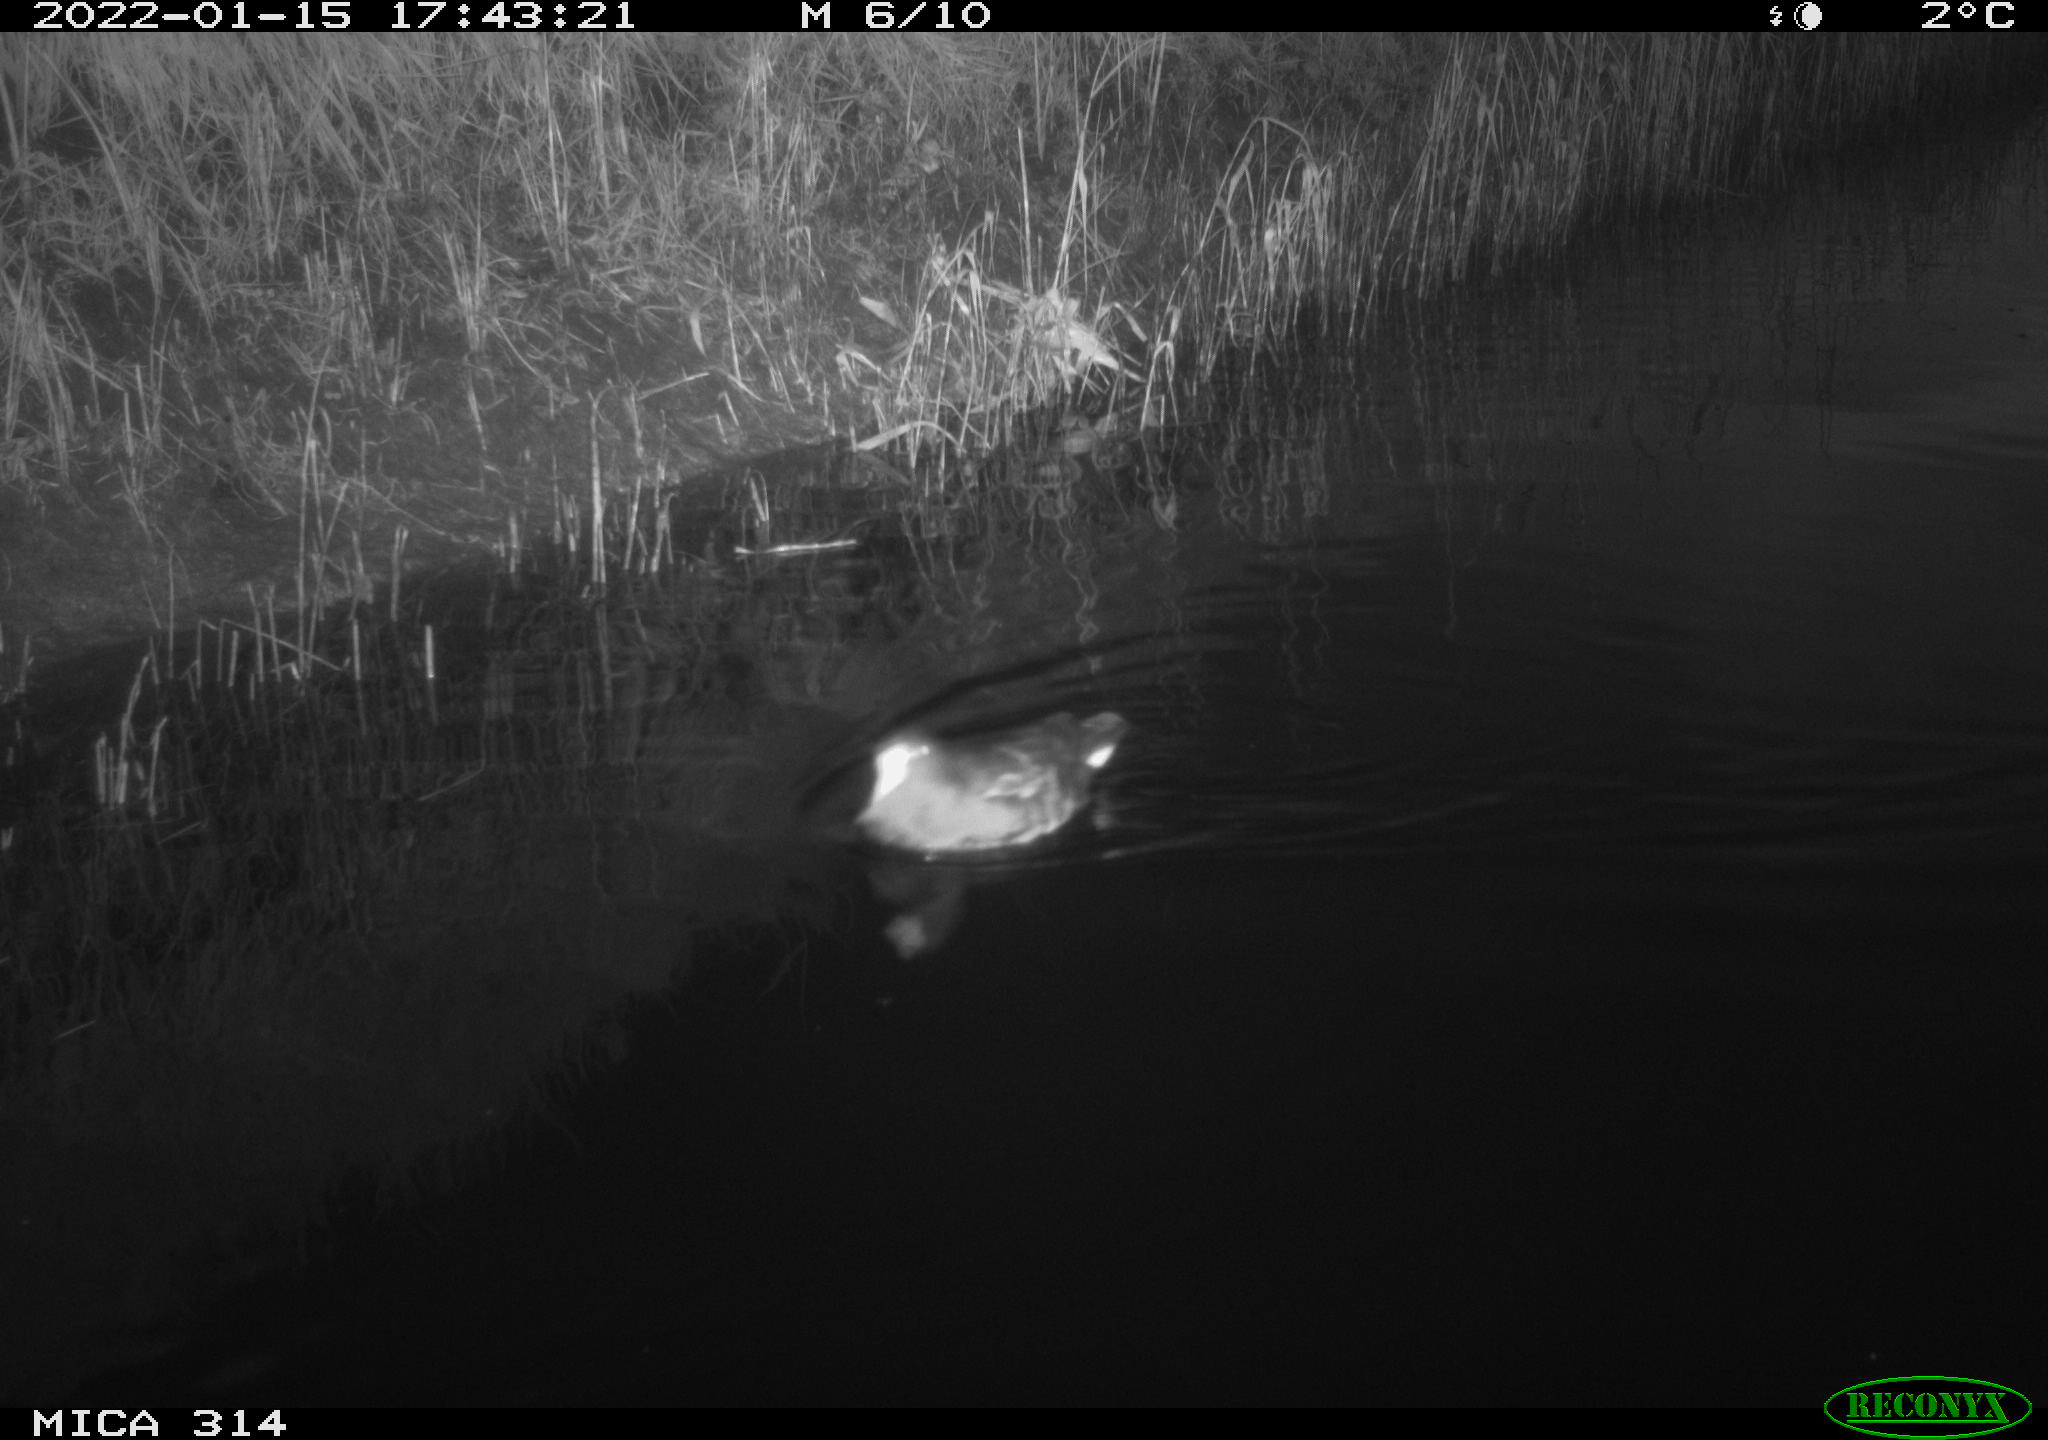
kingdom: Animalia
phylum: Chordata
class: Aves
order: Gruiformes
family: Rallidae
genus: Gallinula
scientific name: Gallinula chloropus
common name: Common moorhen
